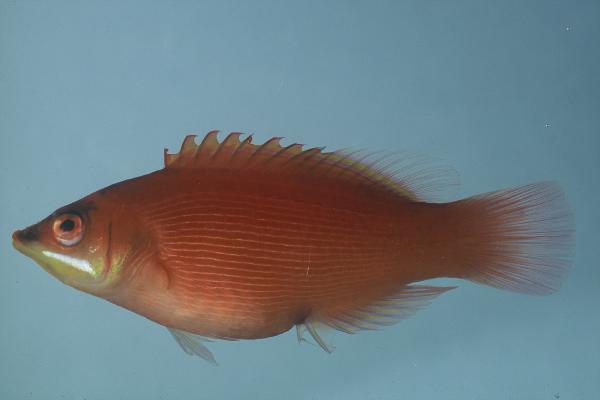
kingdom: Animalia
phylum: Chordata
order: Perciformes
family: Labridae
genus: Pseudocheilinus
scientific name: Pseudocheilinus evanidus
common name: Disappearing wrasse
